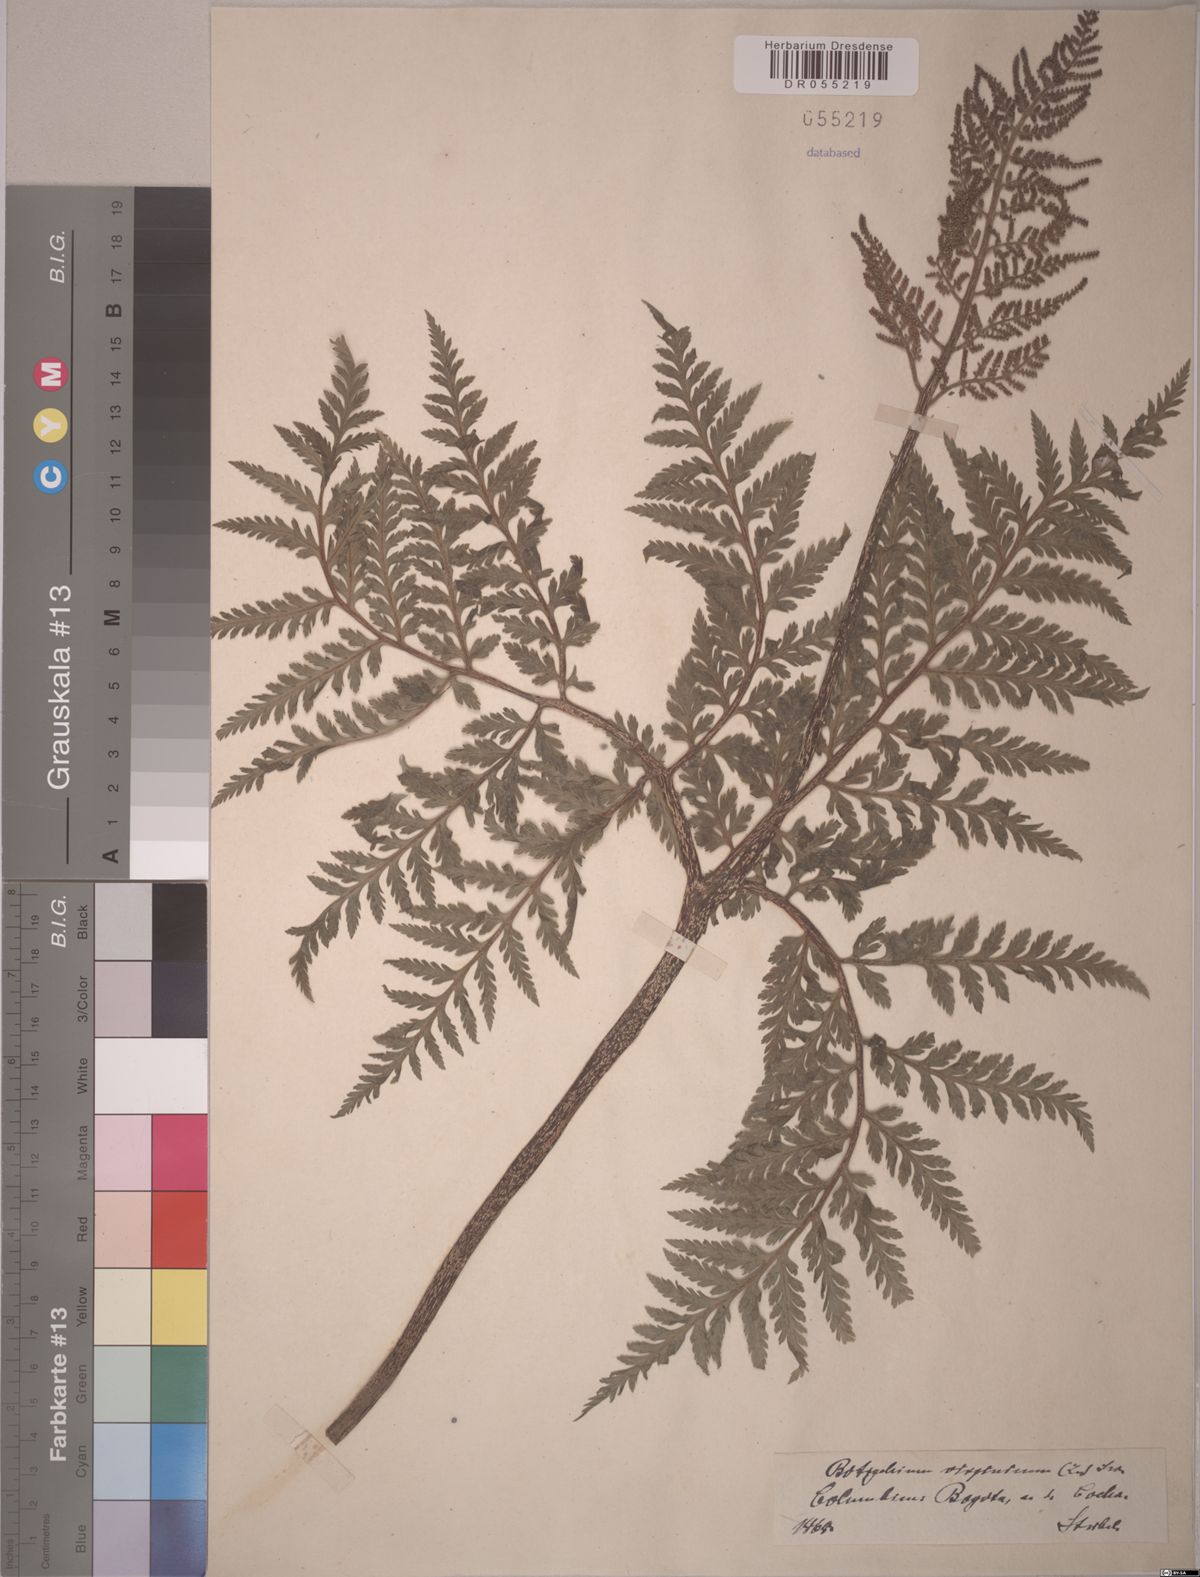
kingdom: Plantae
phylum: Tracheophyta
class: Polypodiopsida
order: Ophioglossales
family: Ophioglossaceae
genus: Botrypus
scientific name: Botrypus virginianus
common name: Common grapefern
